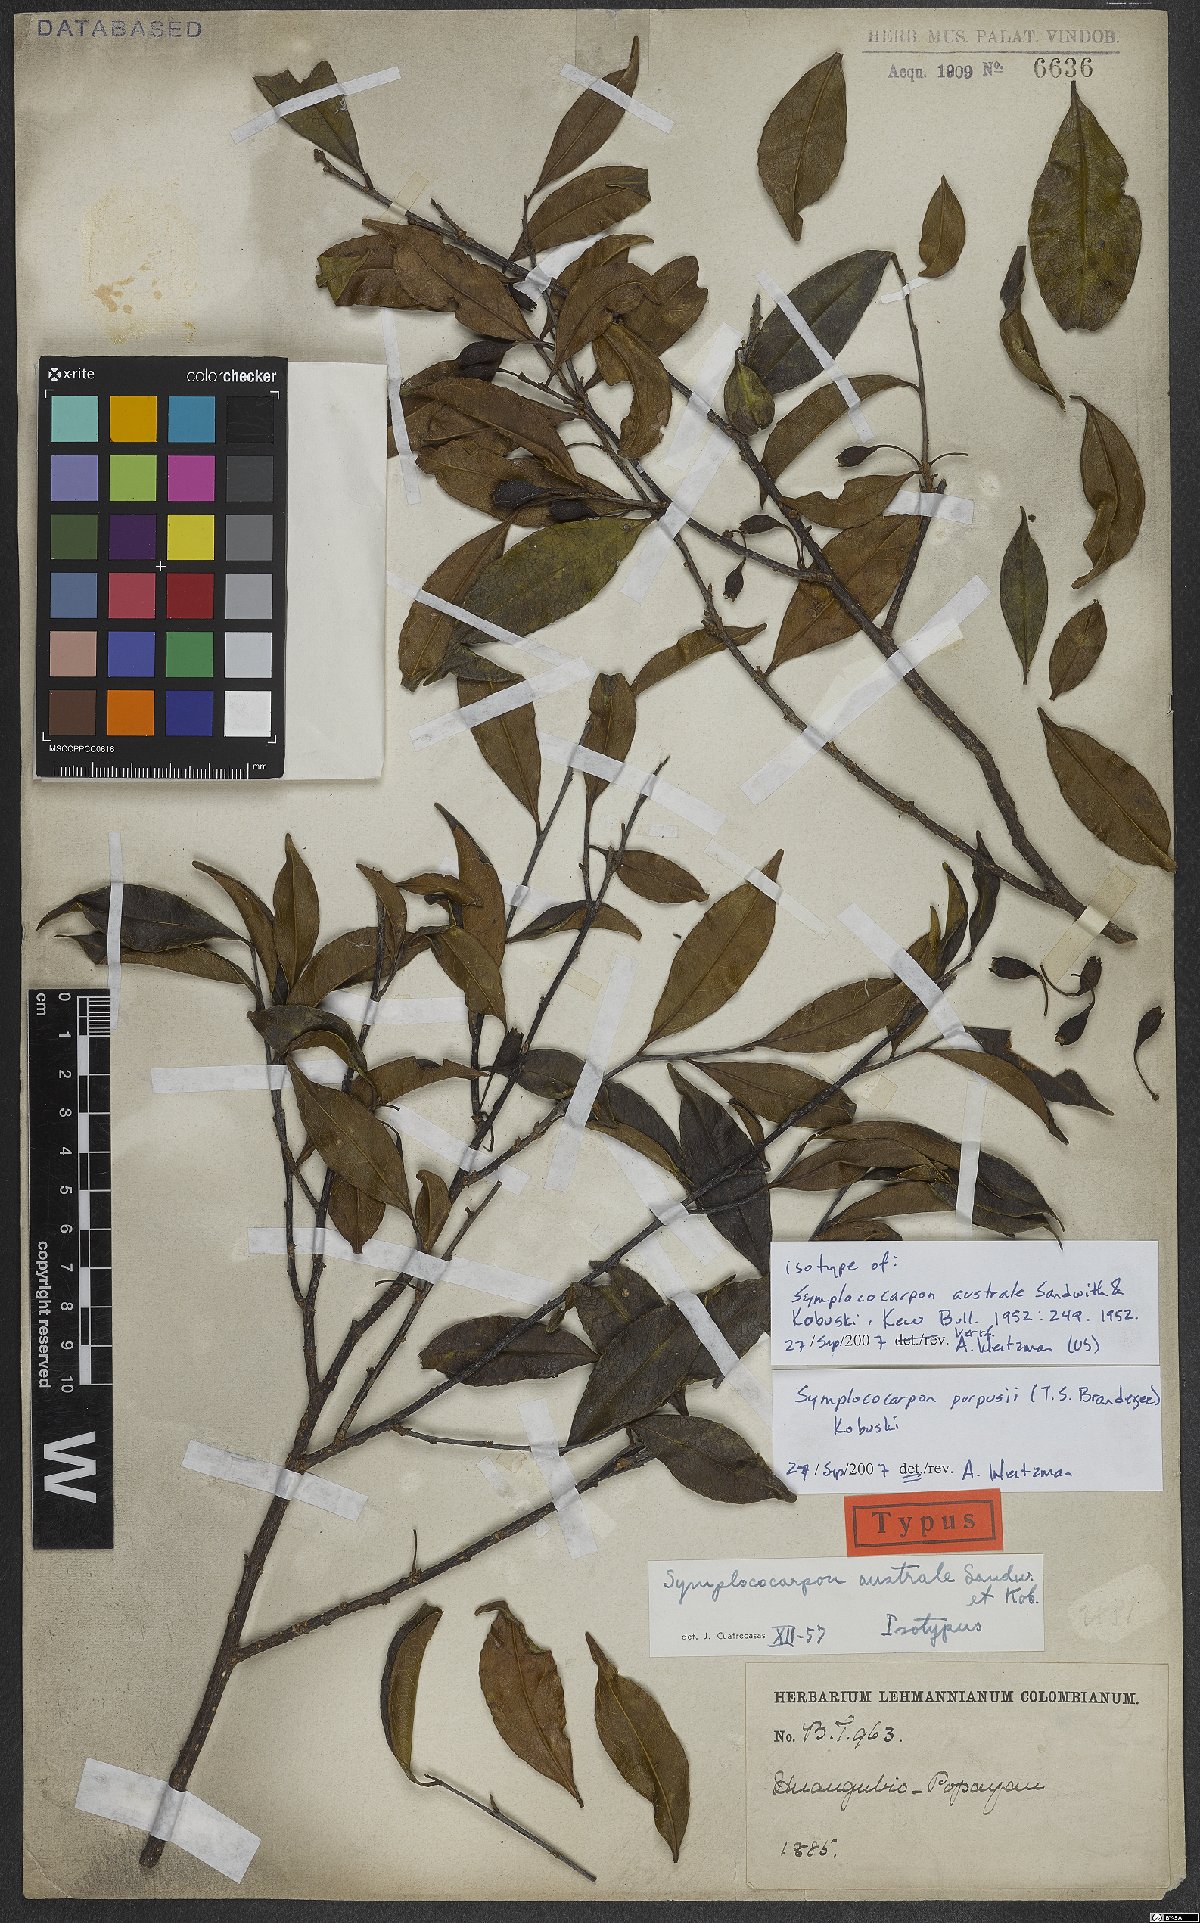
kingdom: Plantae
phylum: Tracheophyta
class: Magnoliopsida
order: Ericales
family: Pentaphylacaceae
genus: Symplococarpon
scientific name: Symplococarpon purpusii
